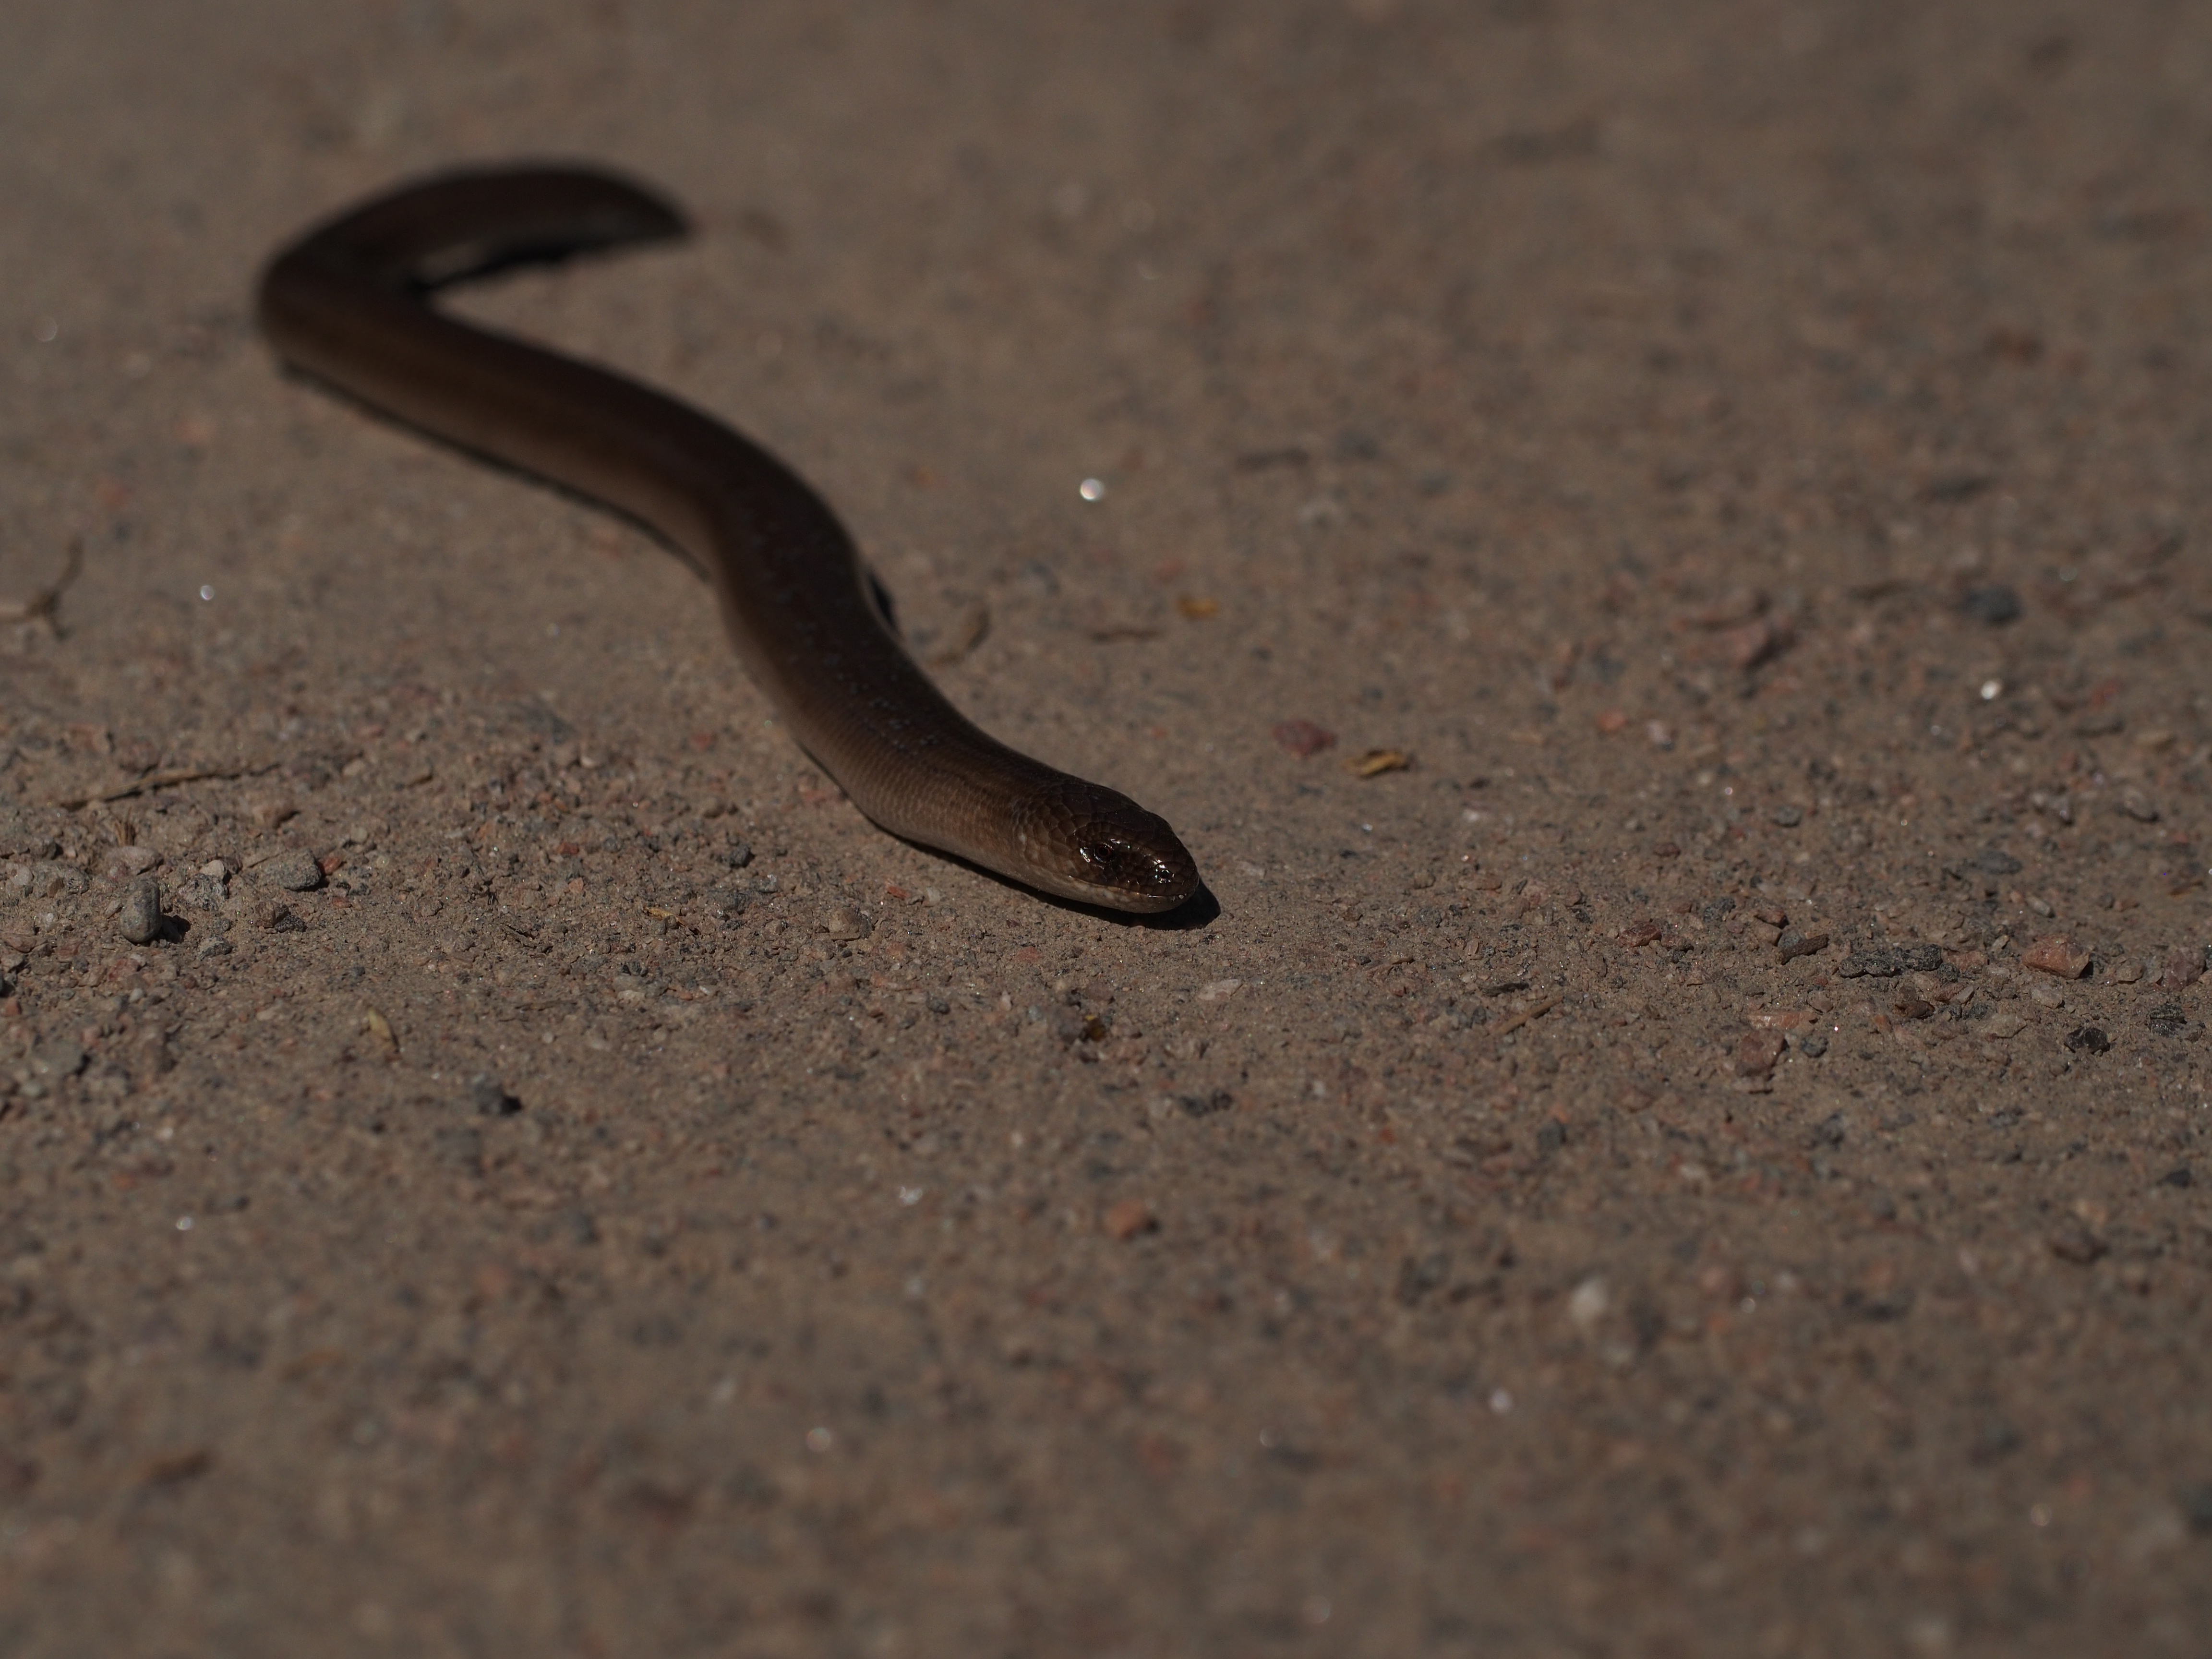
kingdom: Animalia
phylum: Chordata
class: Squamata
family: Anguidae
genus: Anguis
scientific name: Anguis colchica
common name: Slow worm
